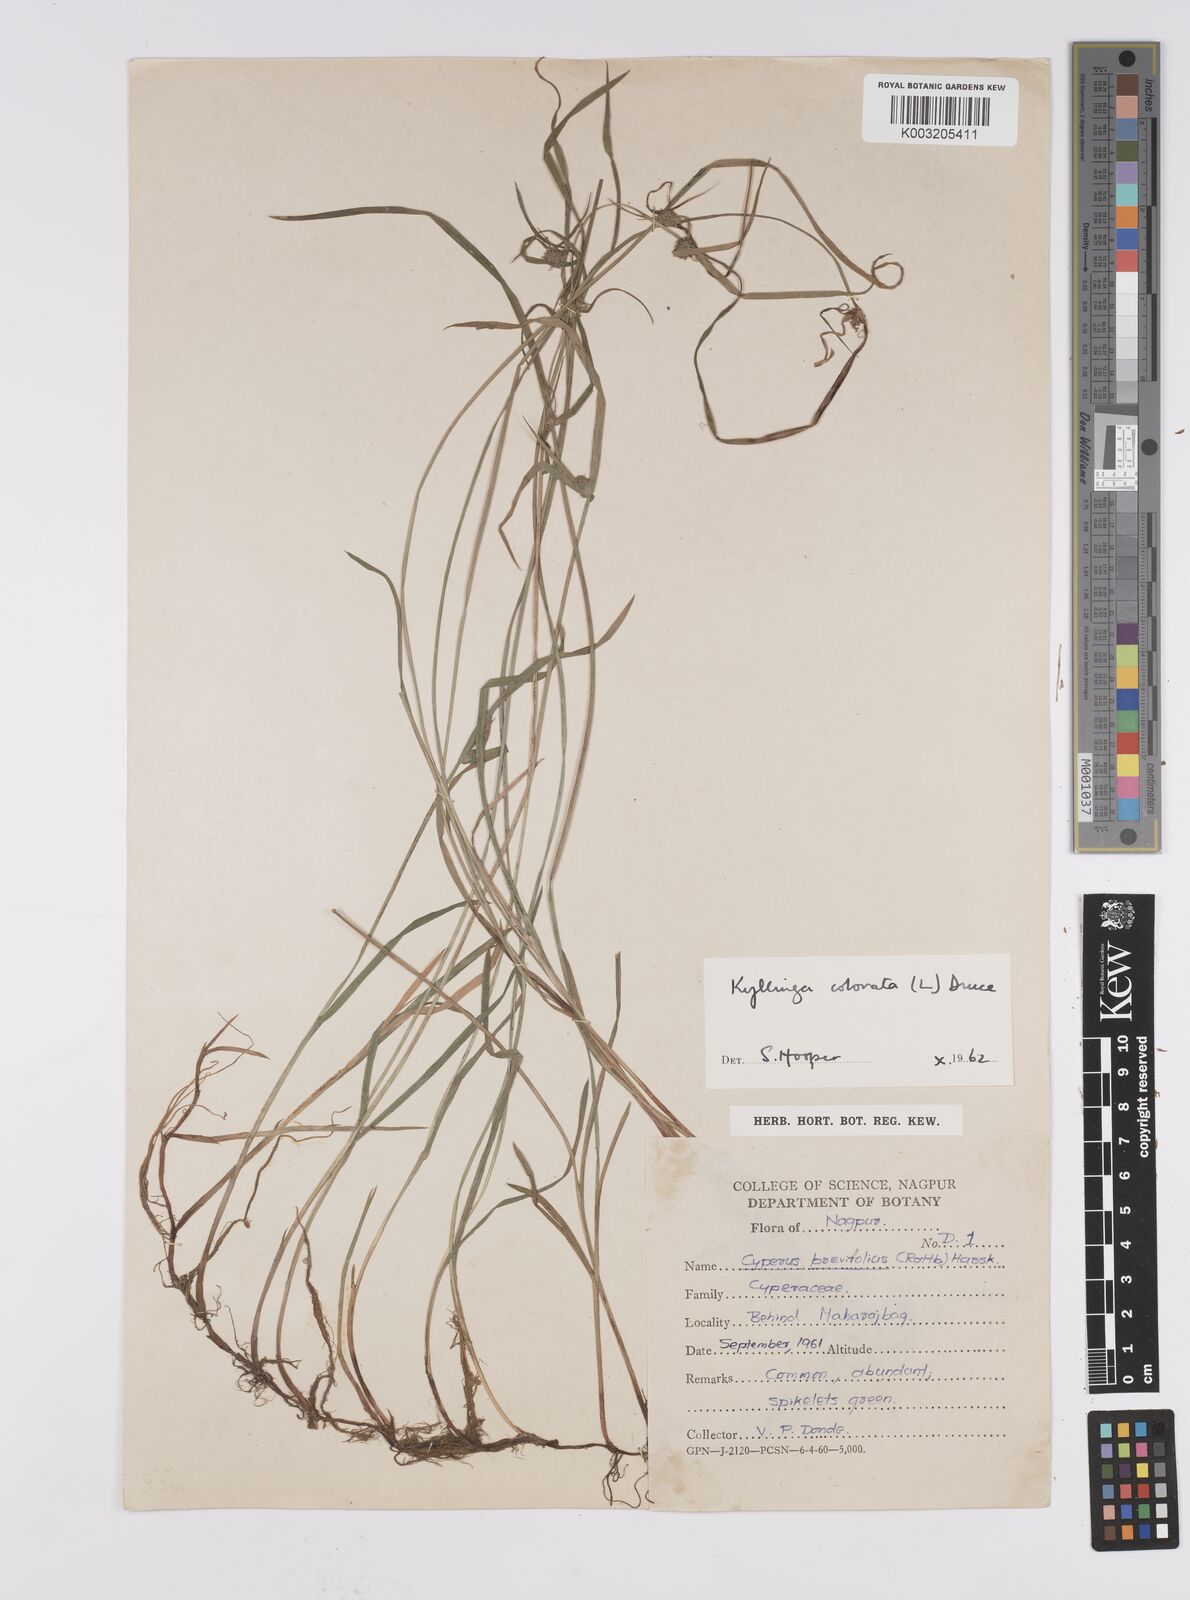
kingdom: Plantae
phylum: Tracheophyta
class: Liliopsida
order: Poales
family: Cyperaceae
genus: Cyperus
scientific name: Cyperus brevifolius
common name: Globe kyllinga
